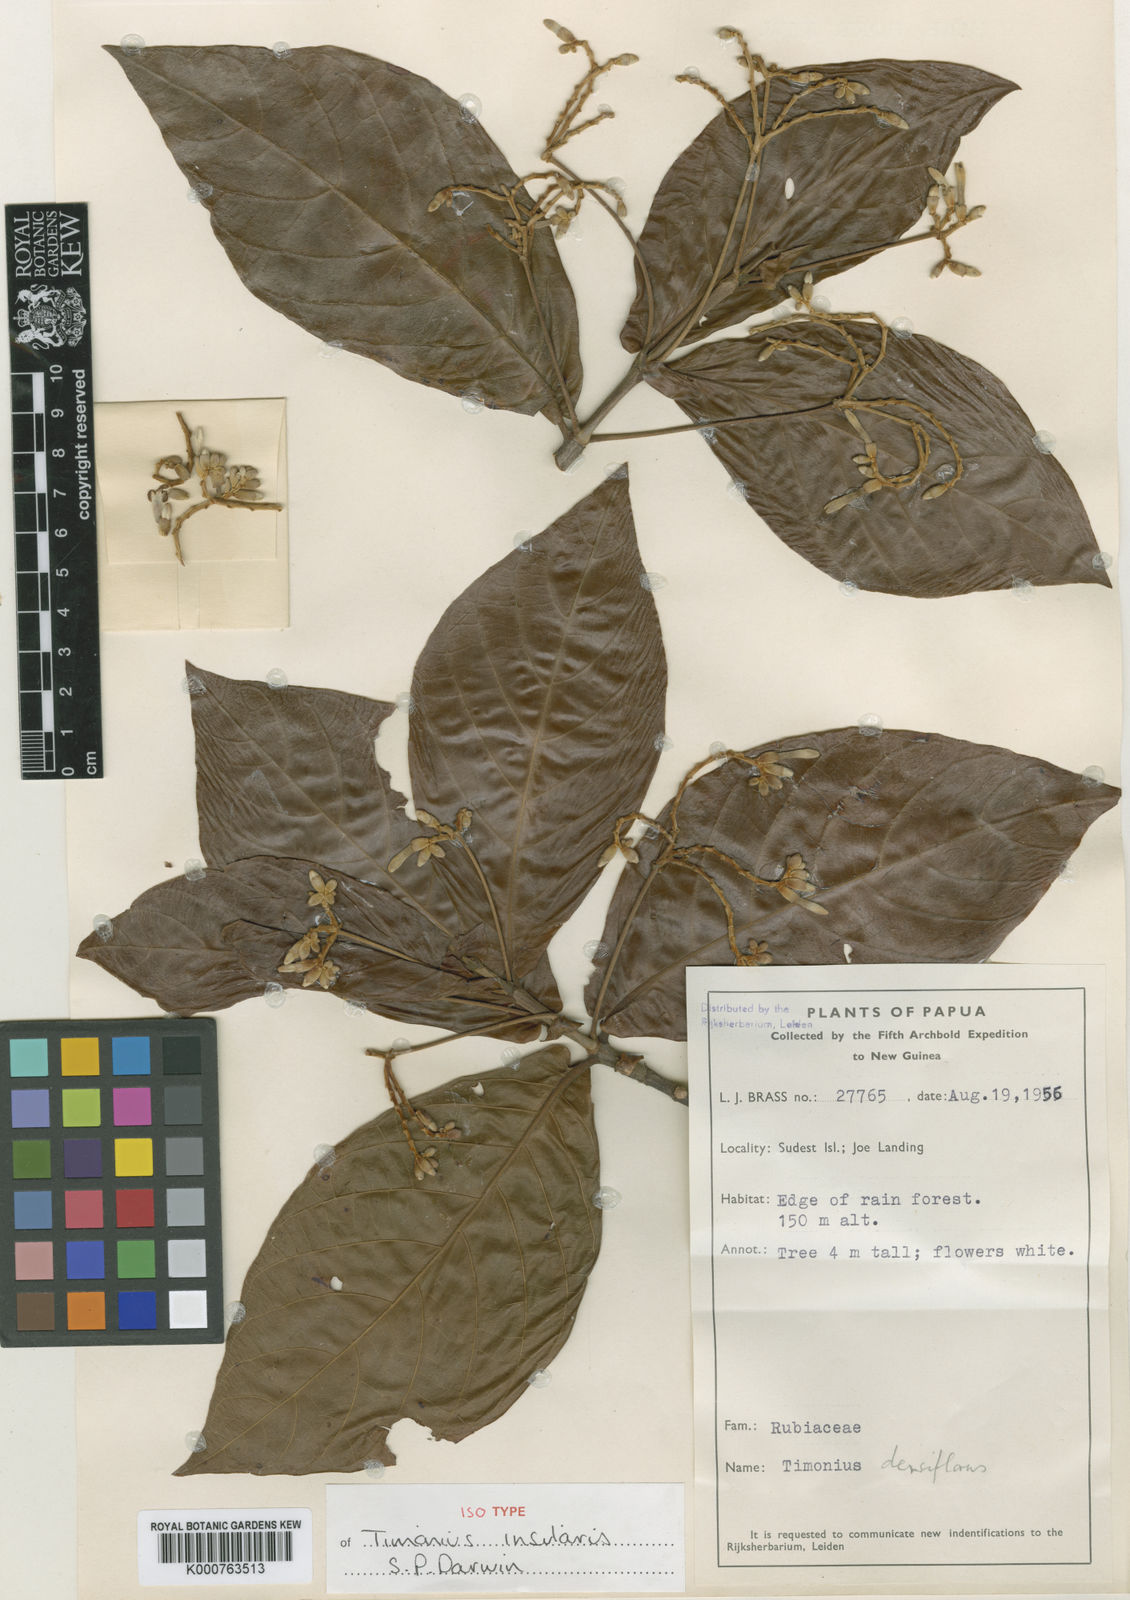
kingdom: Plantae
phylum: Tracheophyta
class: Magnoliopsida
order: Gentianales
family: Rubiaceae
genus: Timonius
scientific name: Timonius insularis
